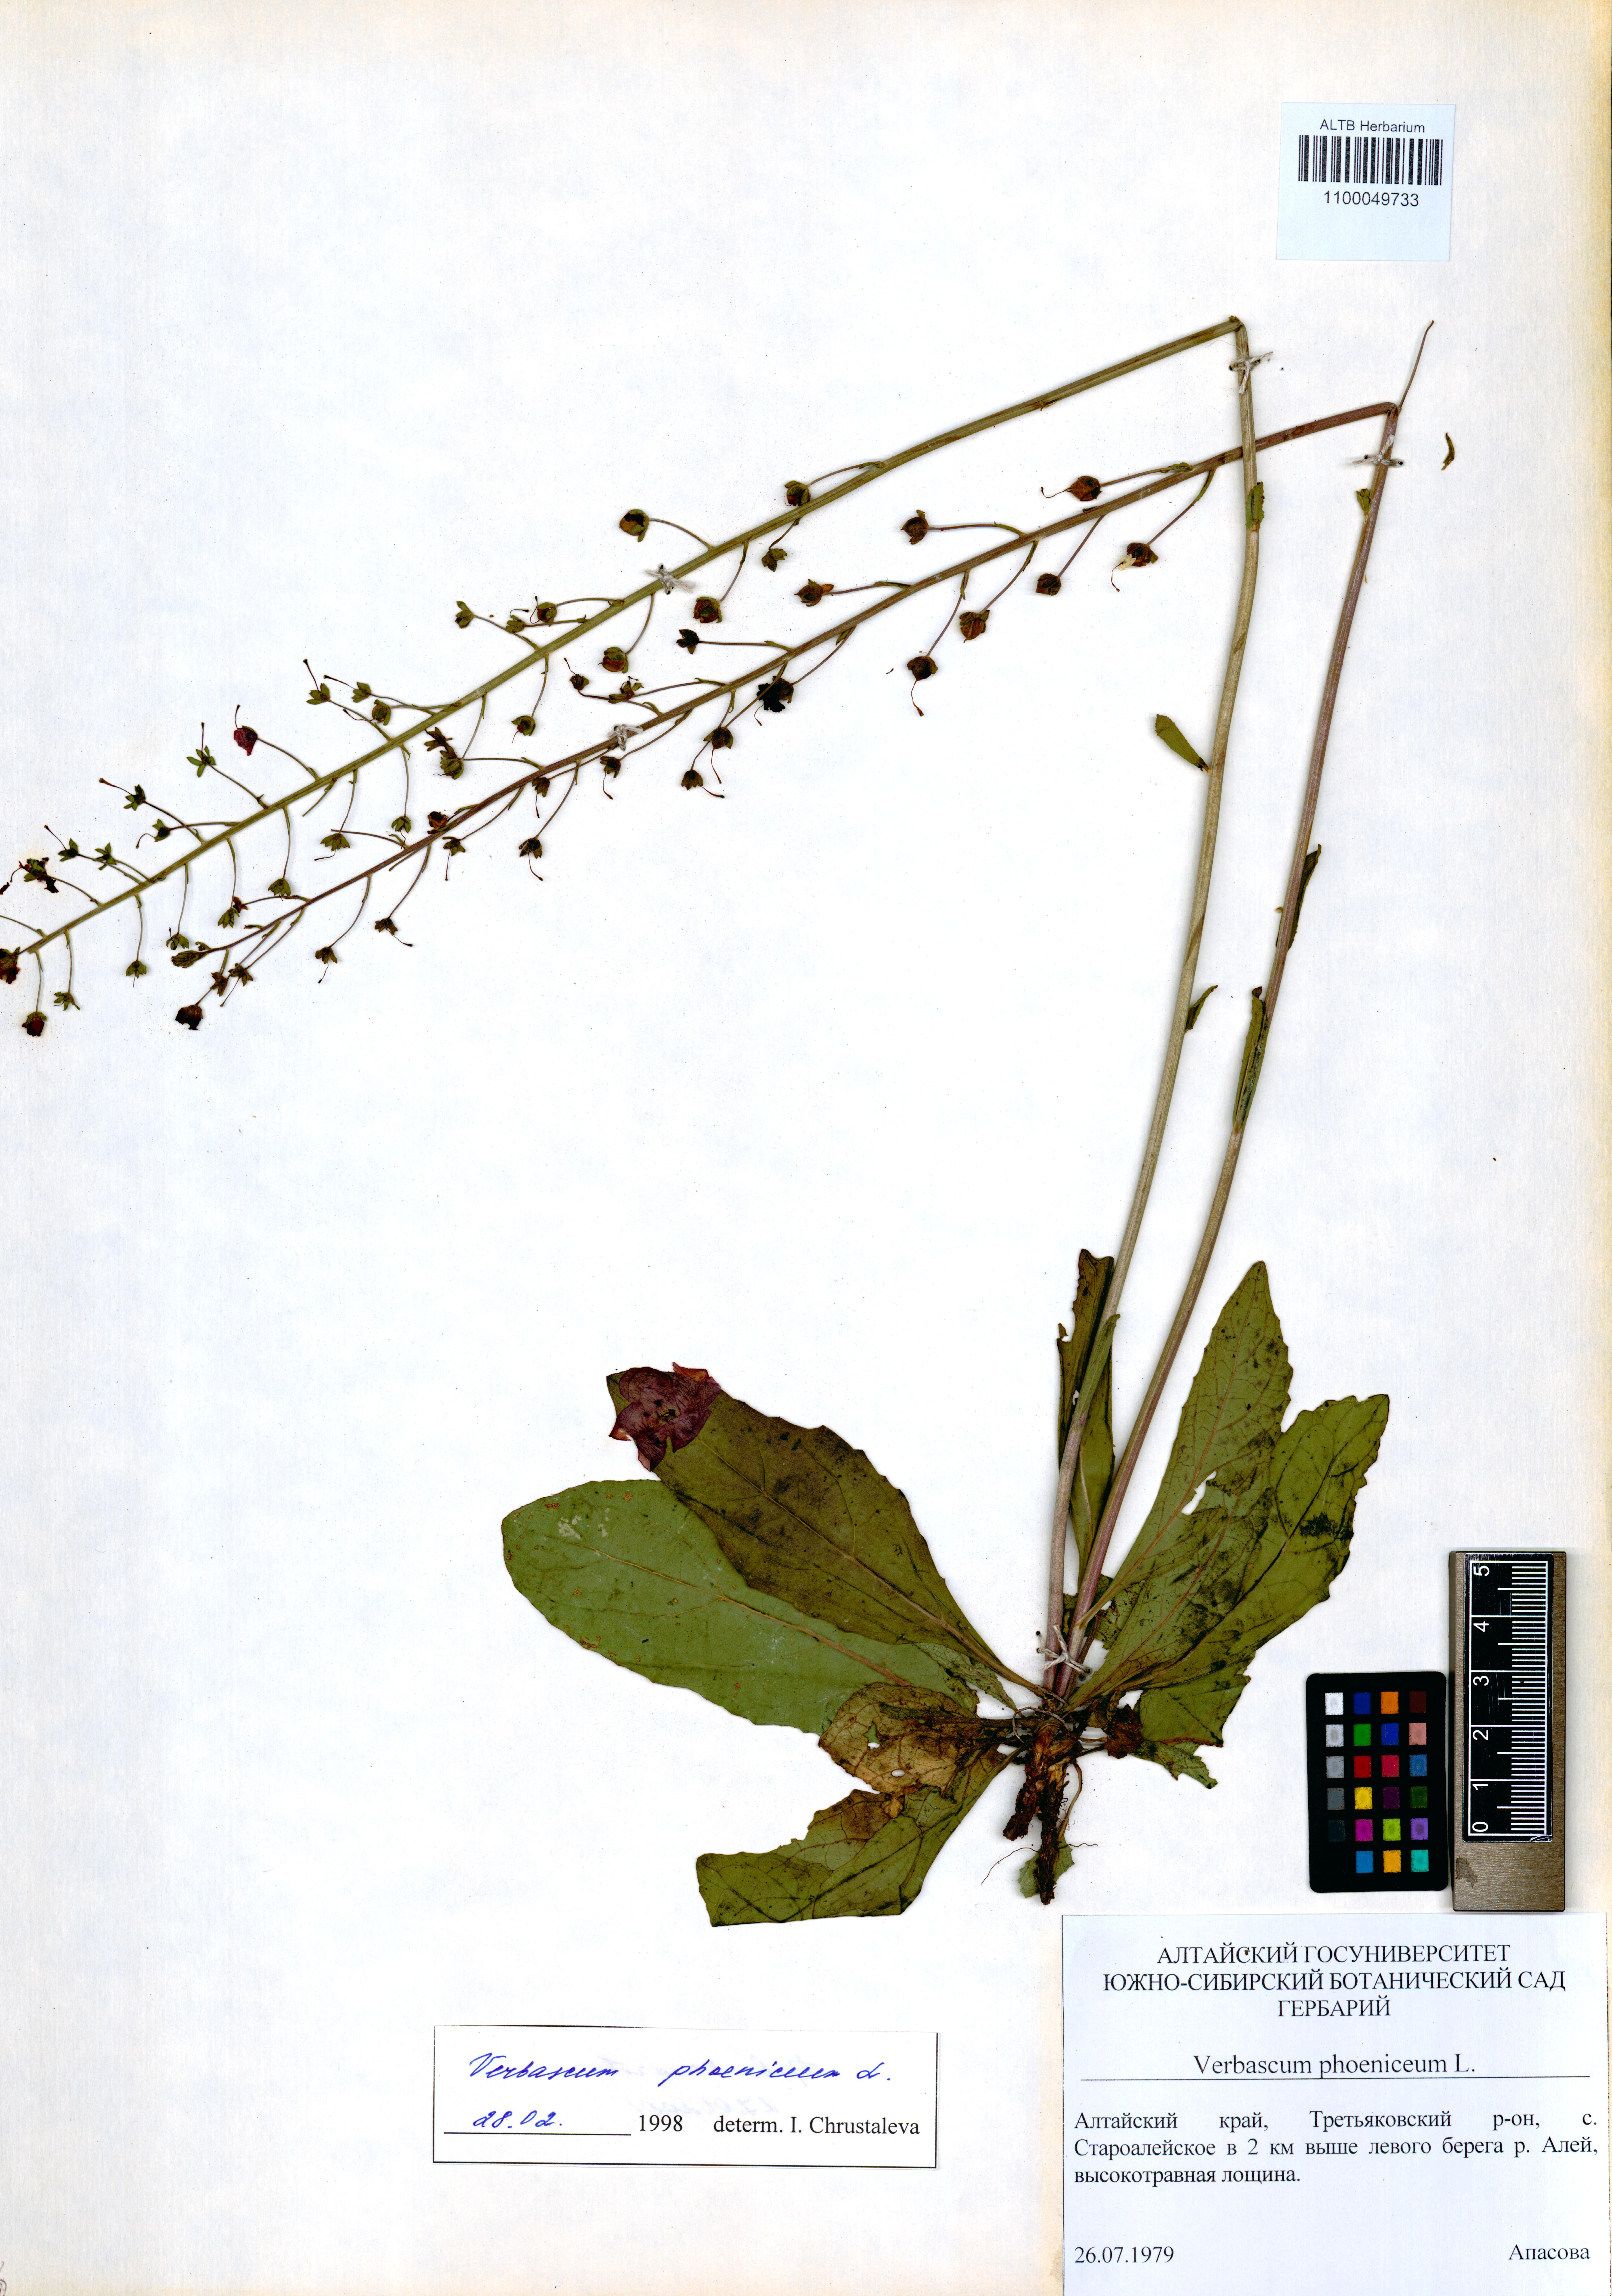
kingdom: Plantae
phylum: Tracheophyta
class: Magnoliopsida
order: Lamiales
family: Scrophulariaceae
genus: Verbascum
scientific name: Verbascum phoeniceum
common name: Purple mullein
